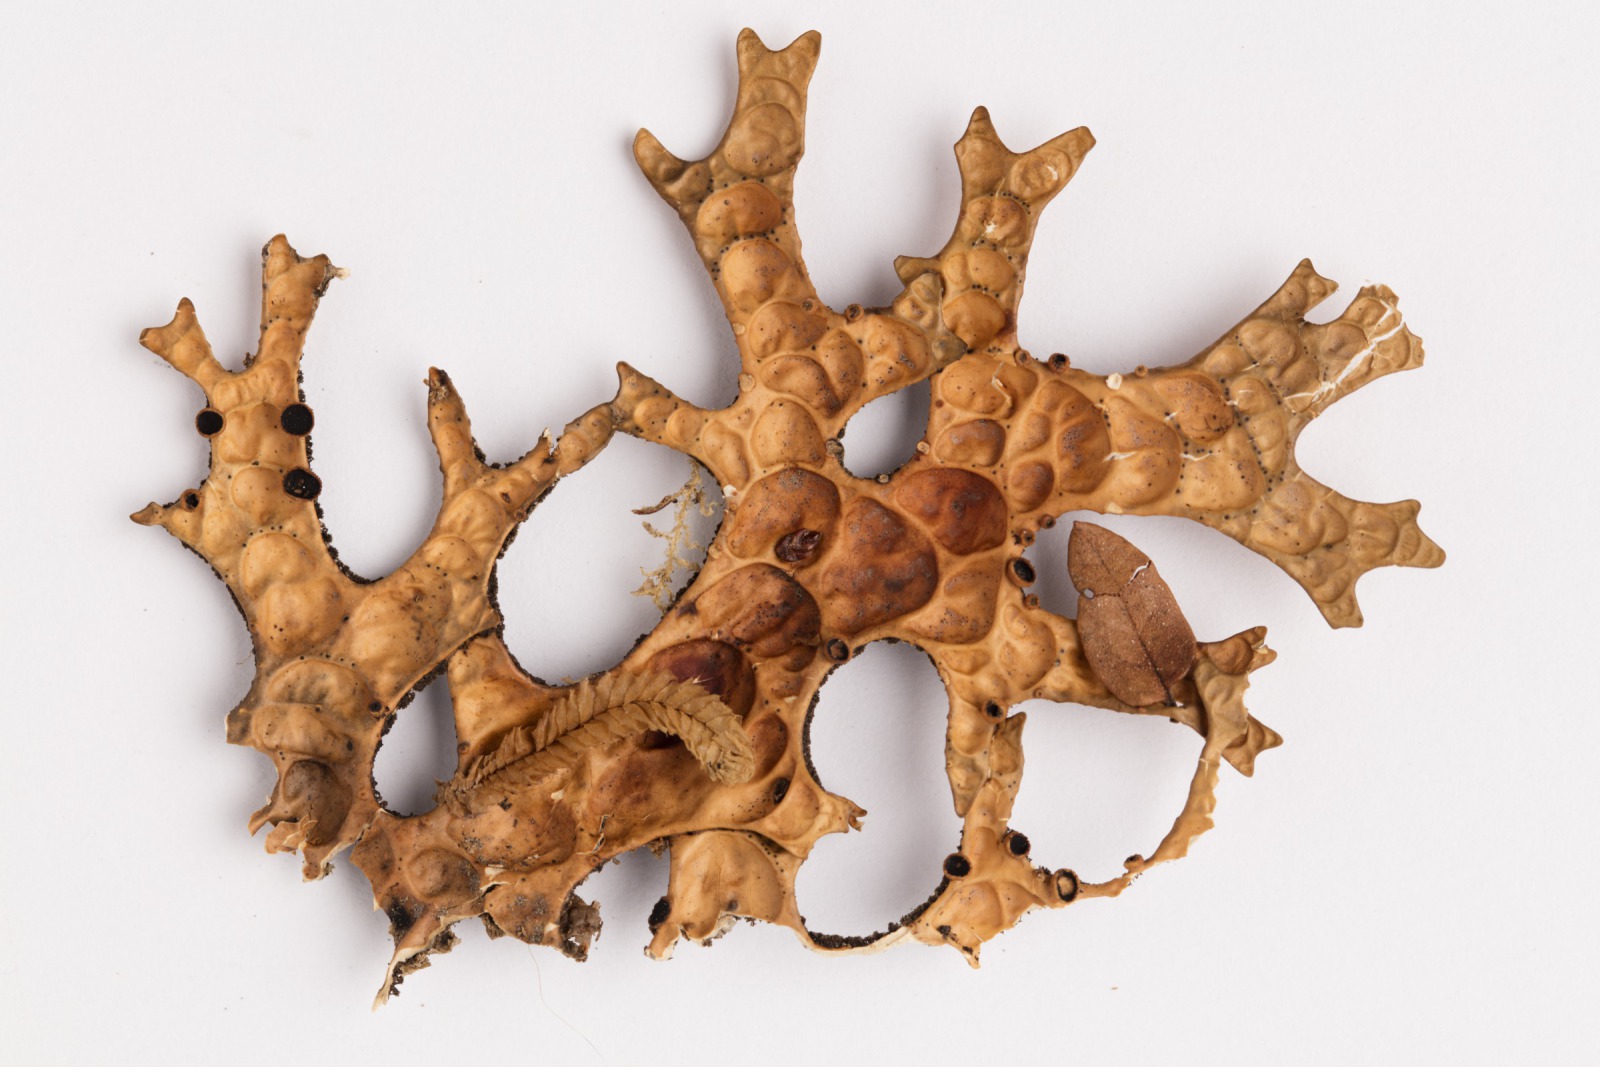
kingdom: Fungi
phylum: Ascomycota
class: Lecanoromycetes
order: Peltigerales
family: Lobariaceae
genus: Pseudocyphellaria
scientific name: Pseudocyphellaria billardierei
